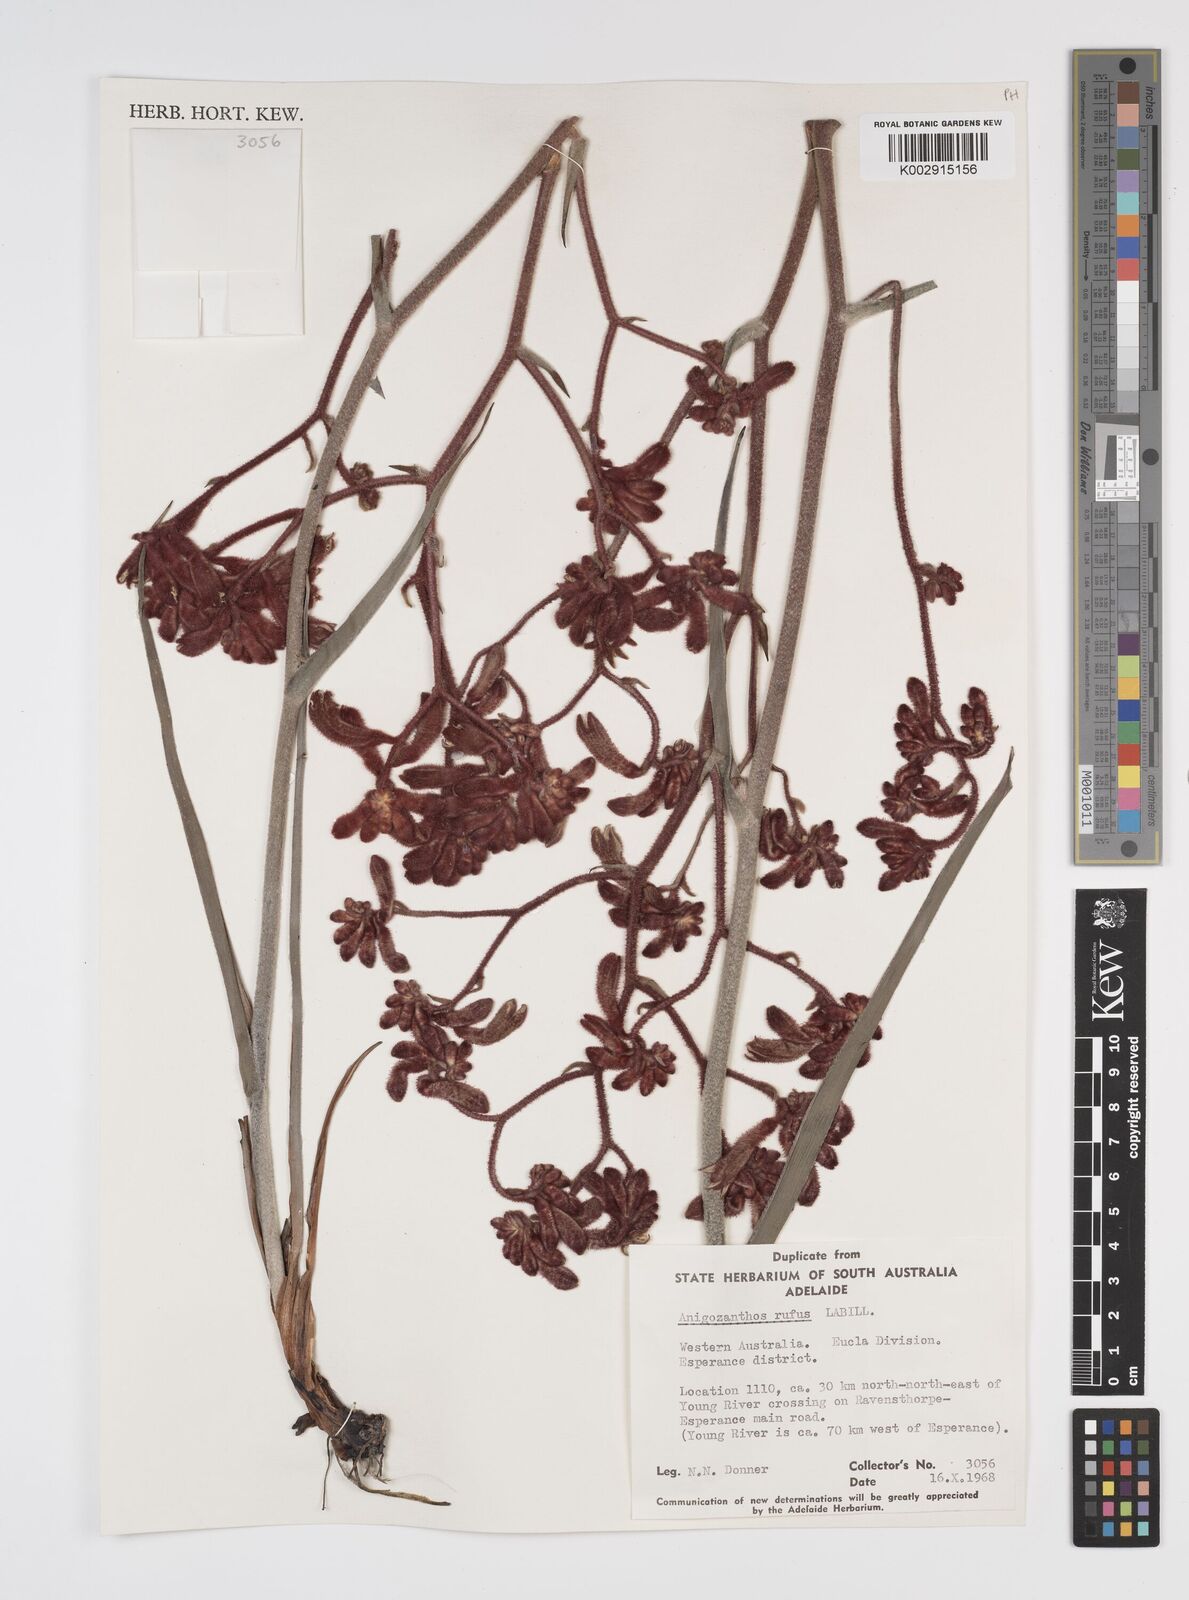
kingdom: Plantae
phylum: Tracheophyta
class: Liliopsida
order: Commelinales
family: Haemodoraceae
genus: Anigozanthos
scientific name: Anigozanthos rufus
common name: Red kangaroo-paw
